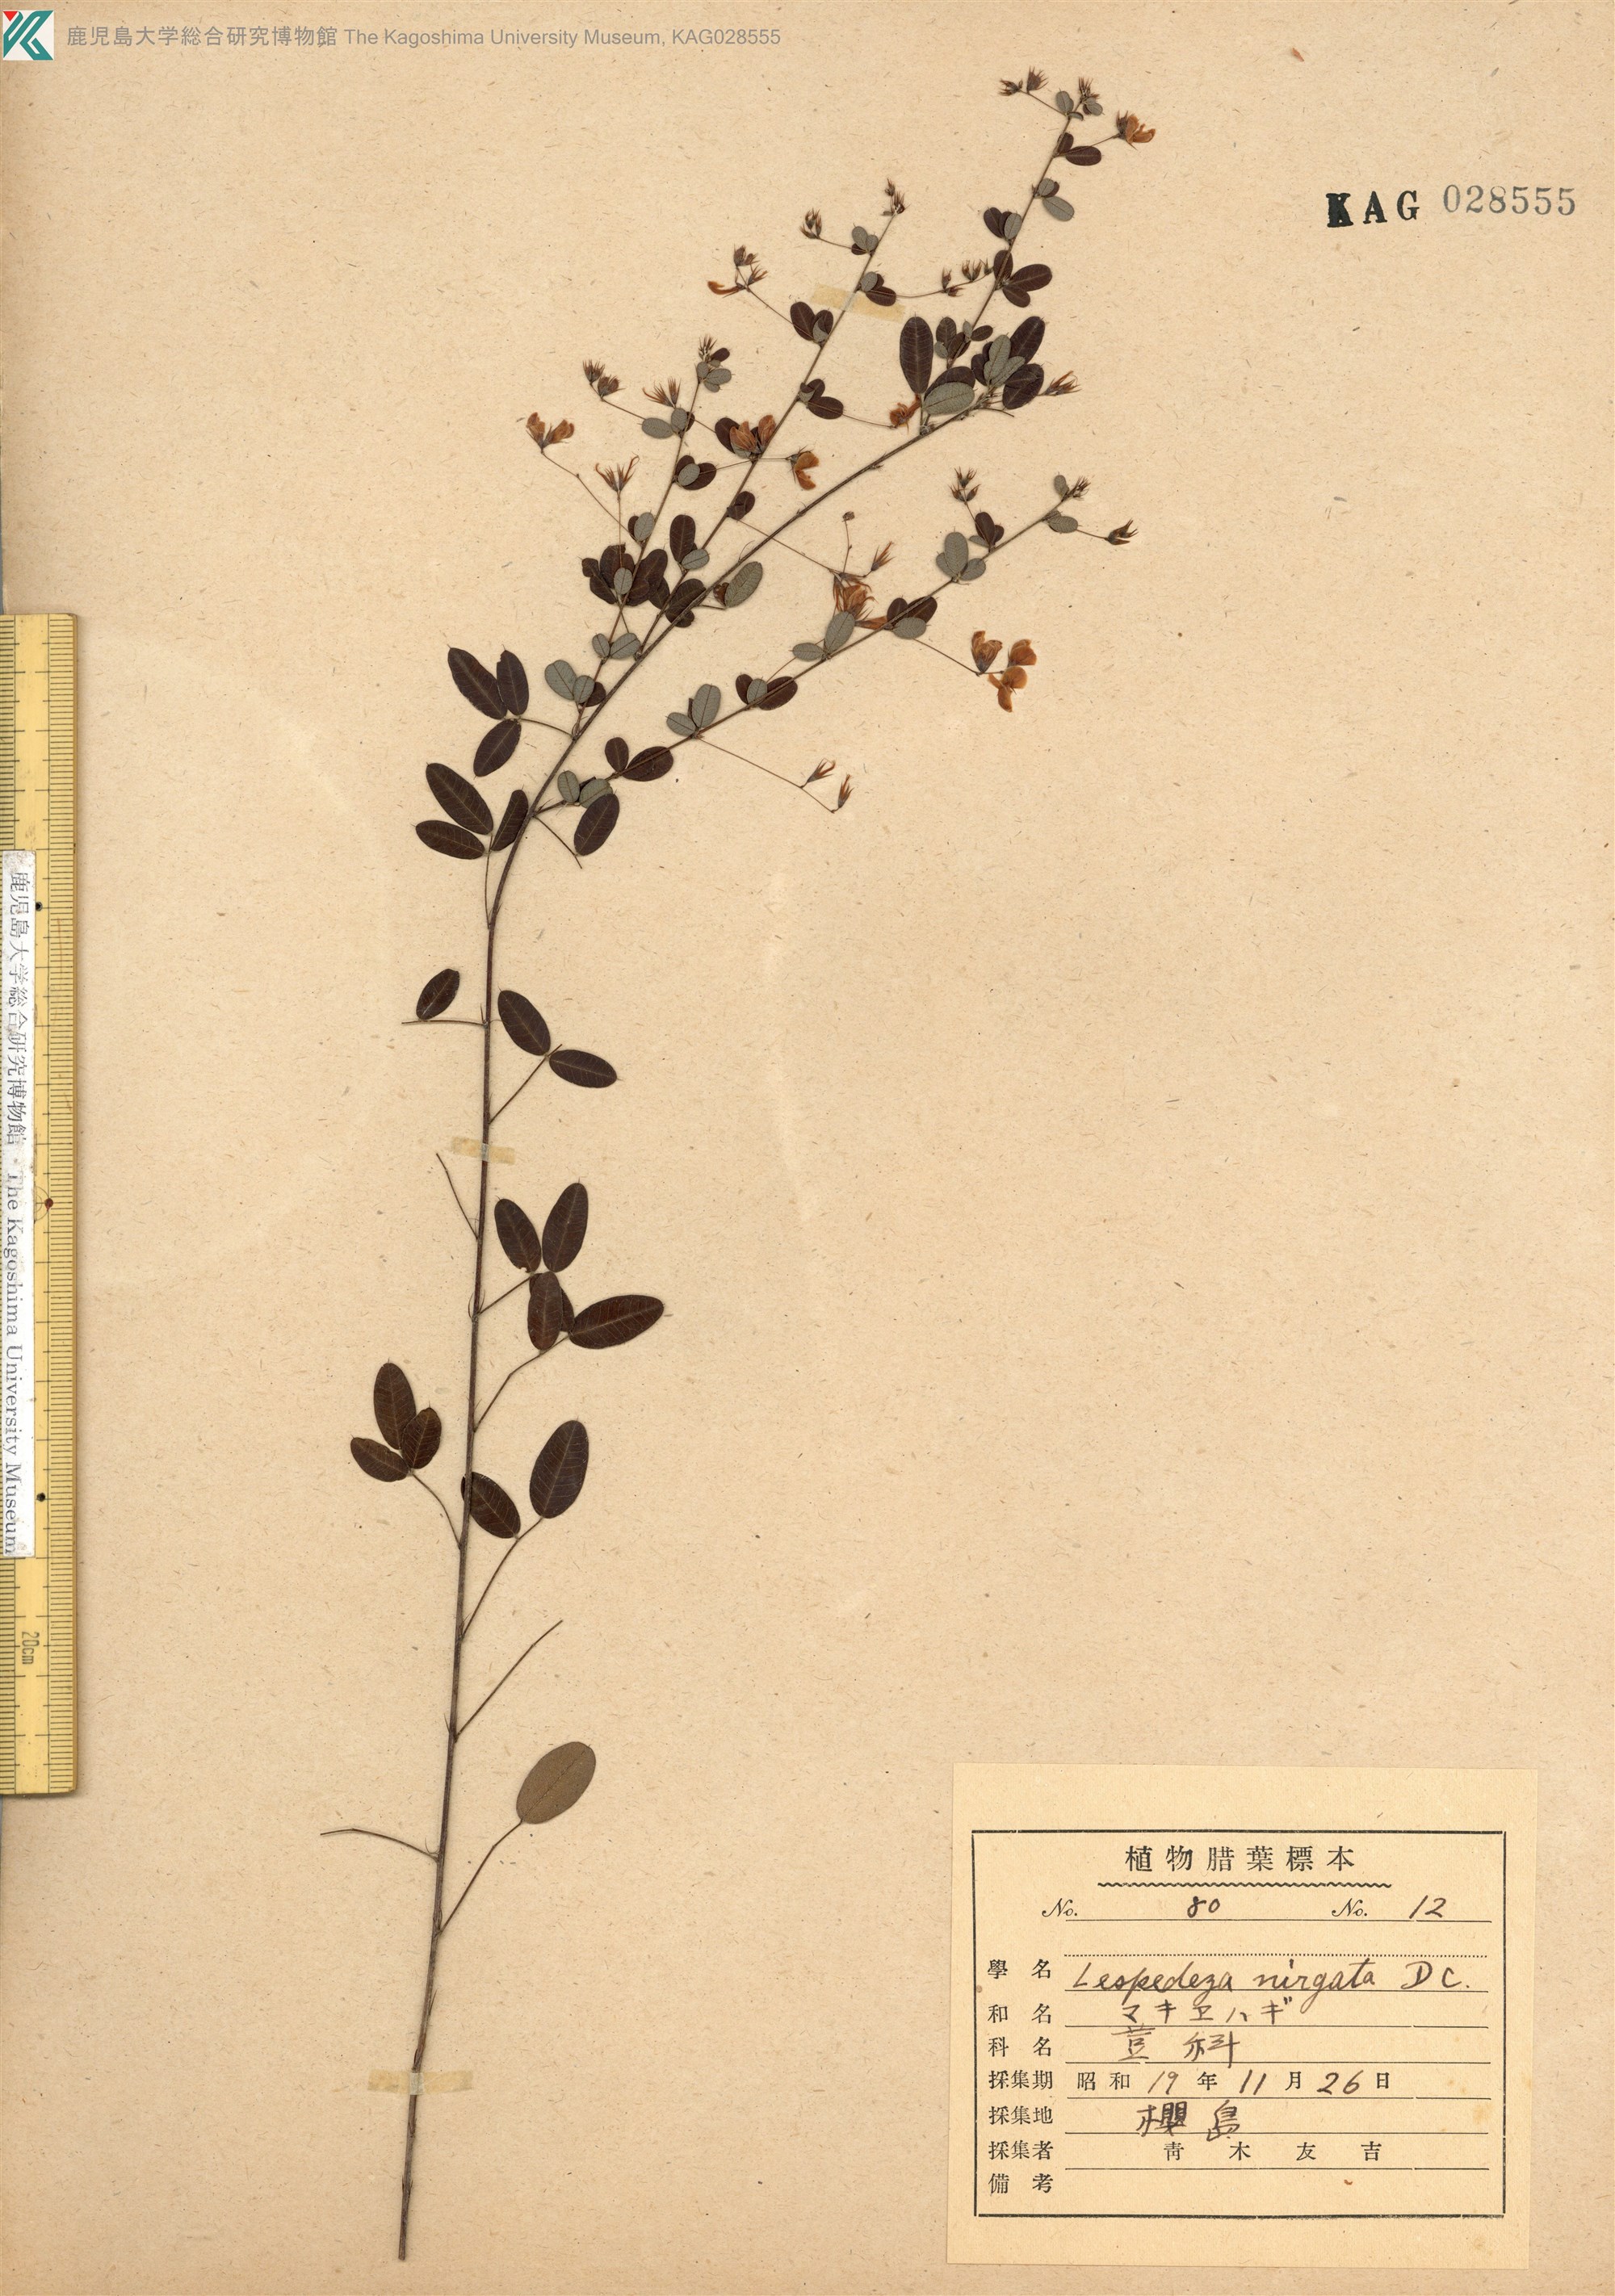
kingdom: Plantae
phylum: Tracheophyta
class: Magnoliopsida
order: Fabales
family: Fabaceae
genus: Lespedeza
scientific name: Lespedeza virgata
